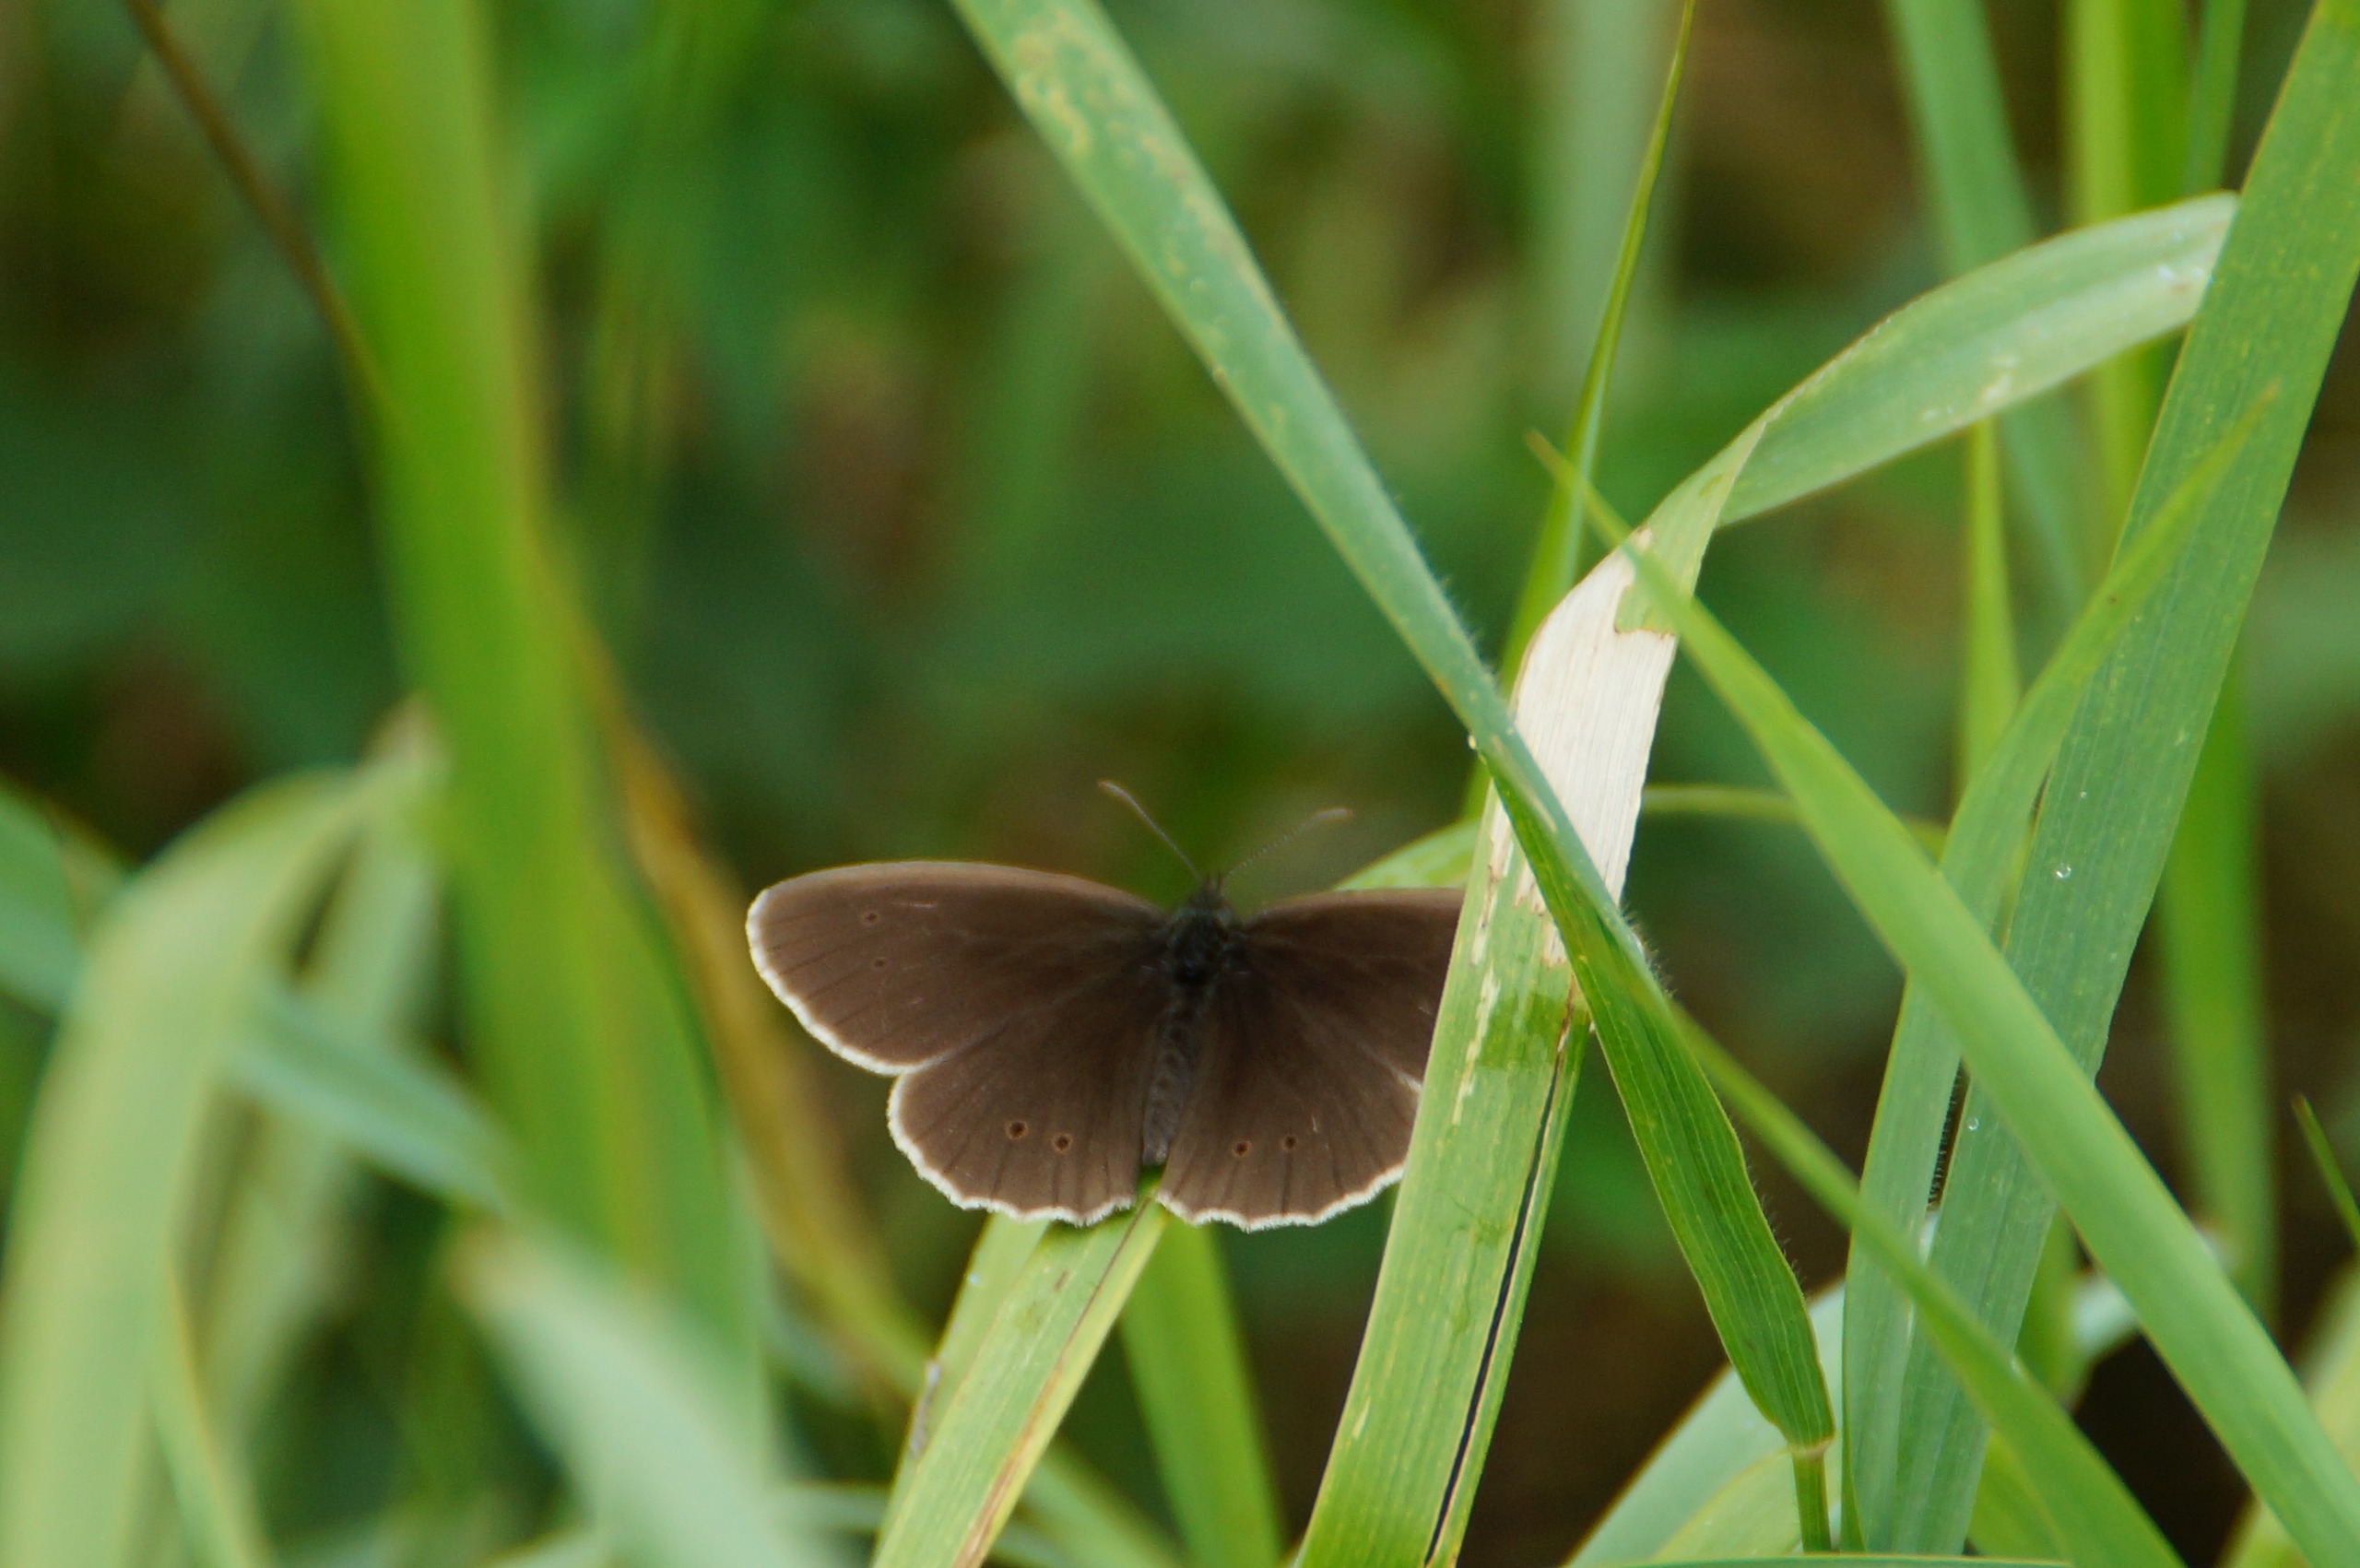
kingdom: Animalia
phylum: Arthropoda
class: Insecta
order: Lepidoptera
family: Nymphalidae
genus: Aphantopus
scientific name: Aphantopus hyperantus
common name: Engrandøje
